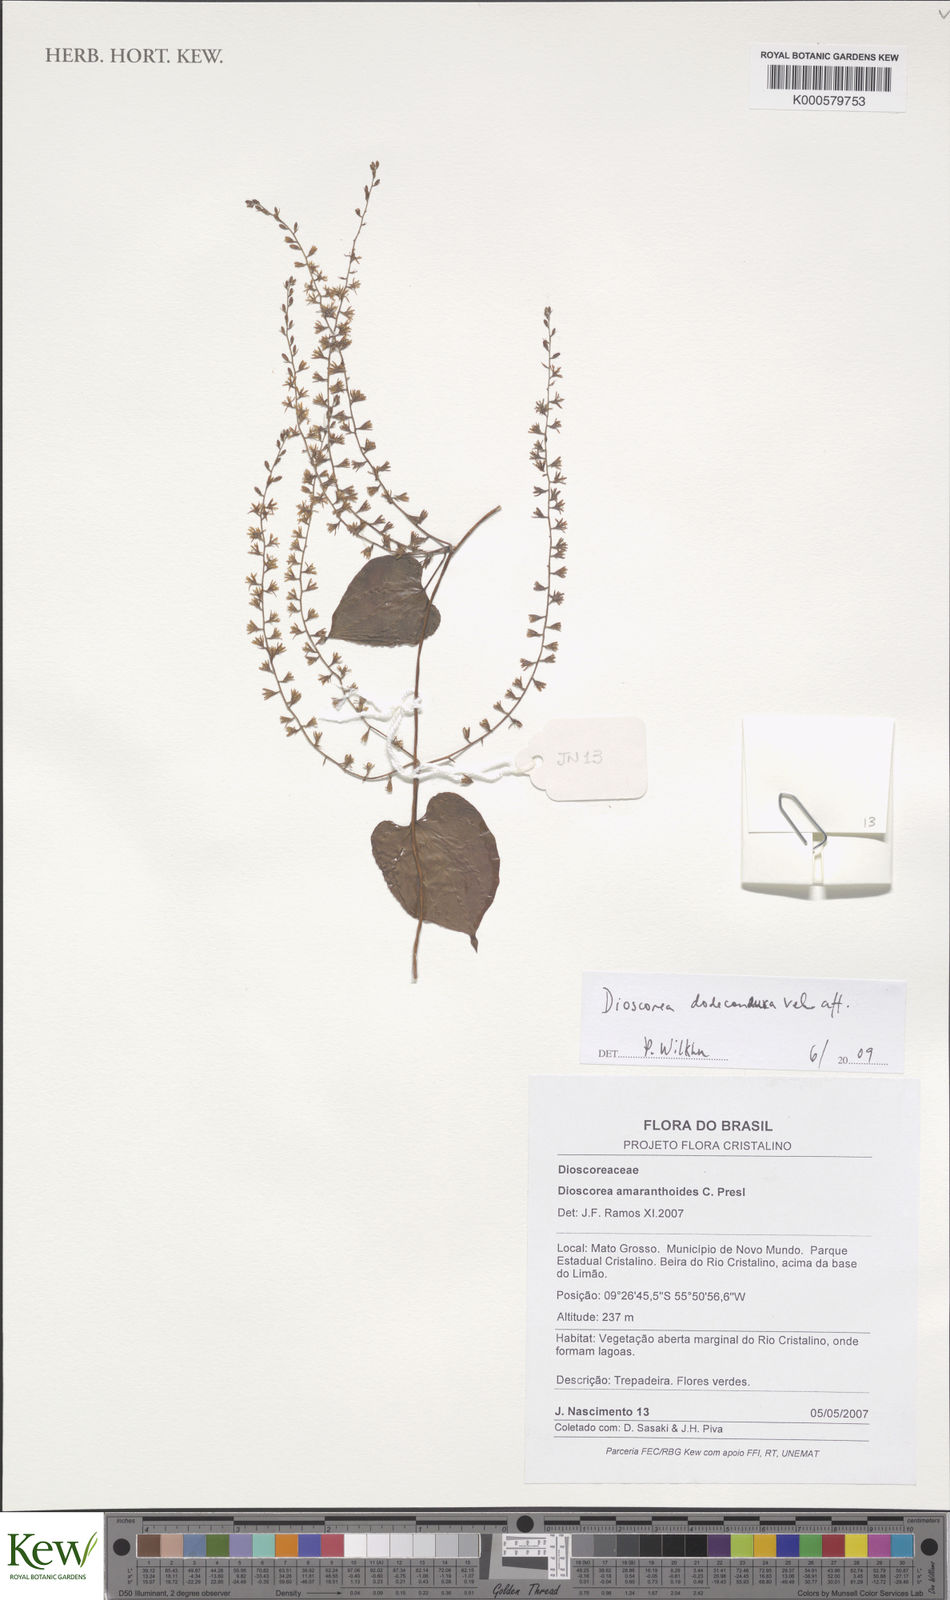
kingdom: Plantae
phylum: Tracheophyta
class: Liliopsida
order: Dioscoreales
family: Dioscoreaceae
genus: Dioscorea
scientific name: Dioscorea dodecaneura
